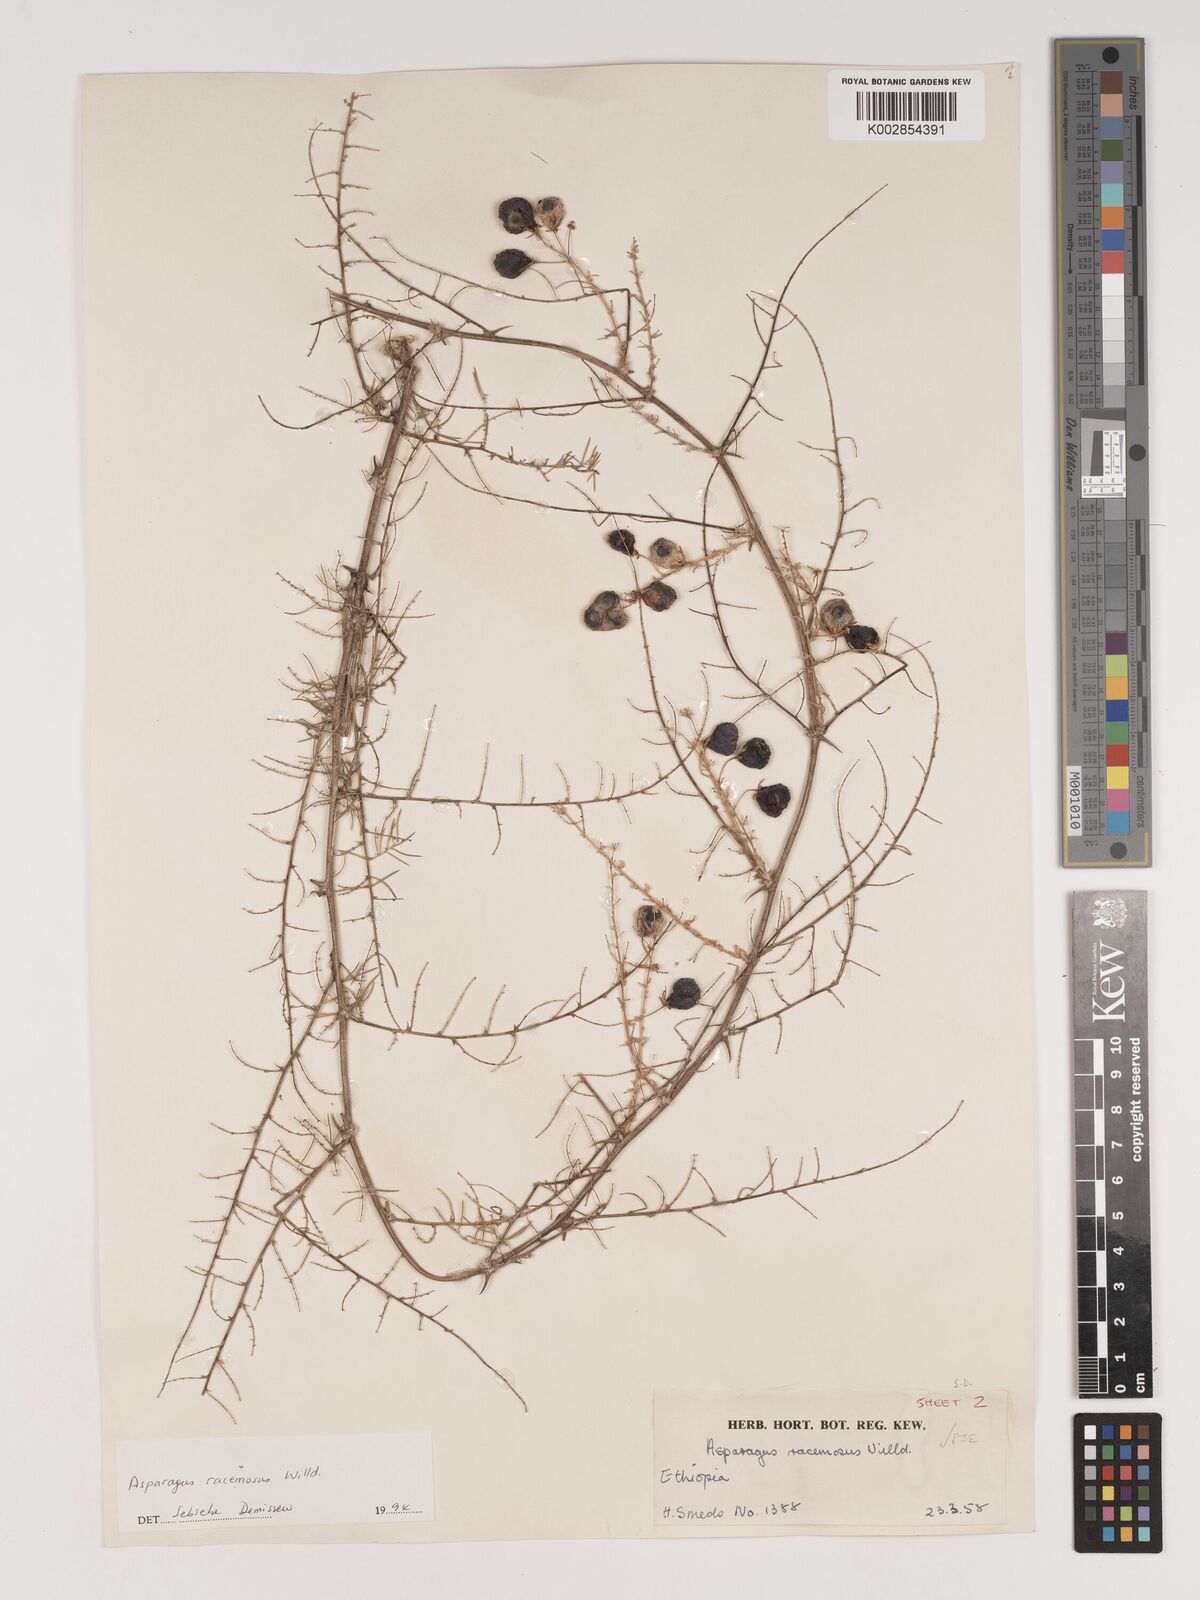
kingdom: Plantae
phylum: Tracheophyta
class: Liliopsida
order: Asparagales
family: Asparagaceae
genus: Asparagus
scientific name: Asparagus racemosus
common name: Asparagus-fern
